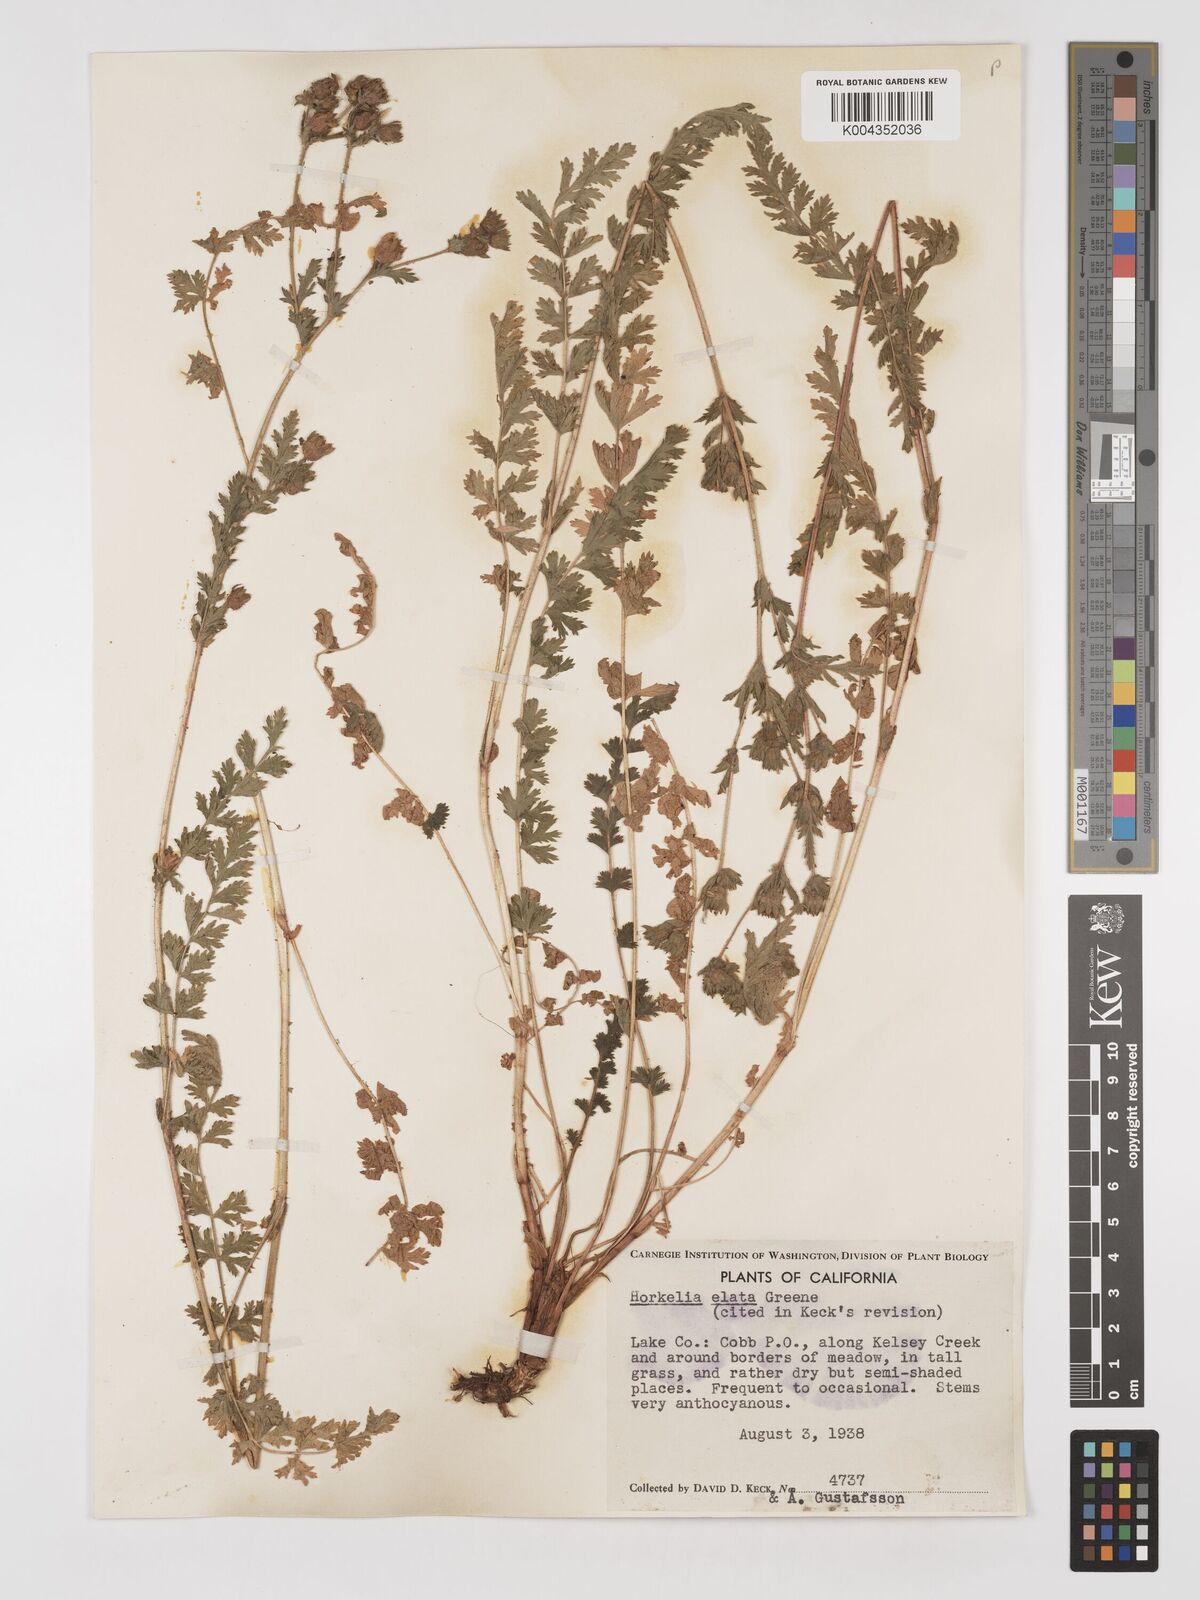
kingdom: Plantae
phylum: Tracheophyta
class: Magnoliopsida
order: Rosales
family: Rosaceae
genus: Potentilla
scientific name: Potentilla californica
